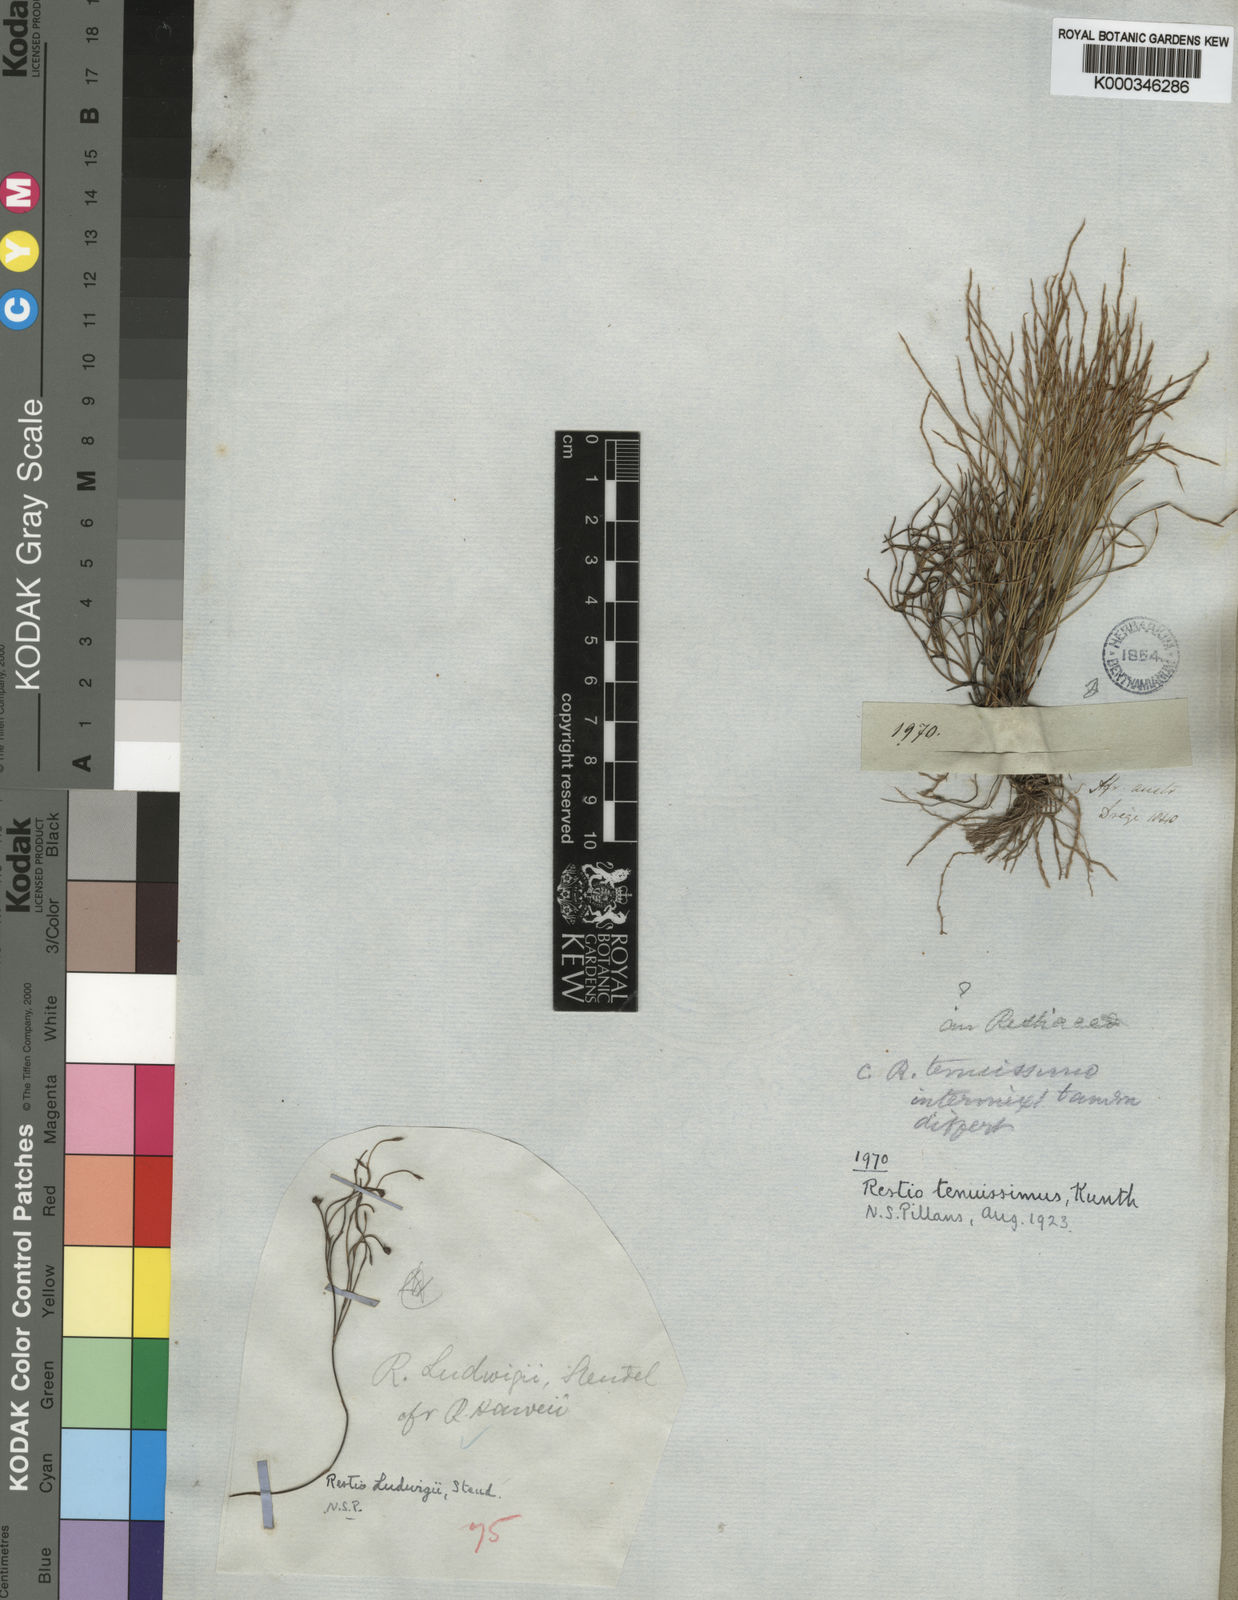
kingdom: Plantae
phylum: Tracheophyta
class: Liliopsida
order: Poales
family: Restionaceae
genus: Restio
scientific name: Restio tenuissimus
